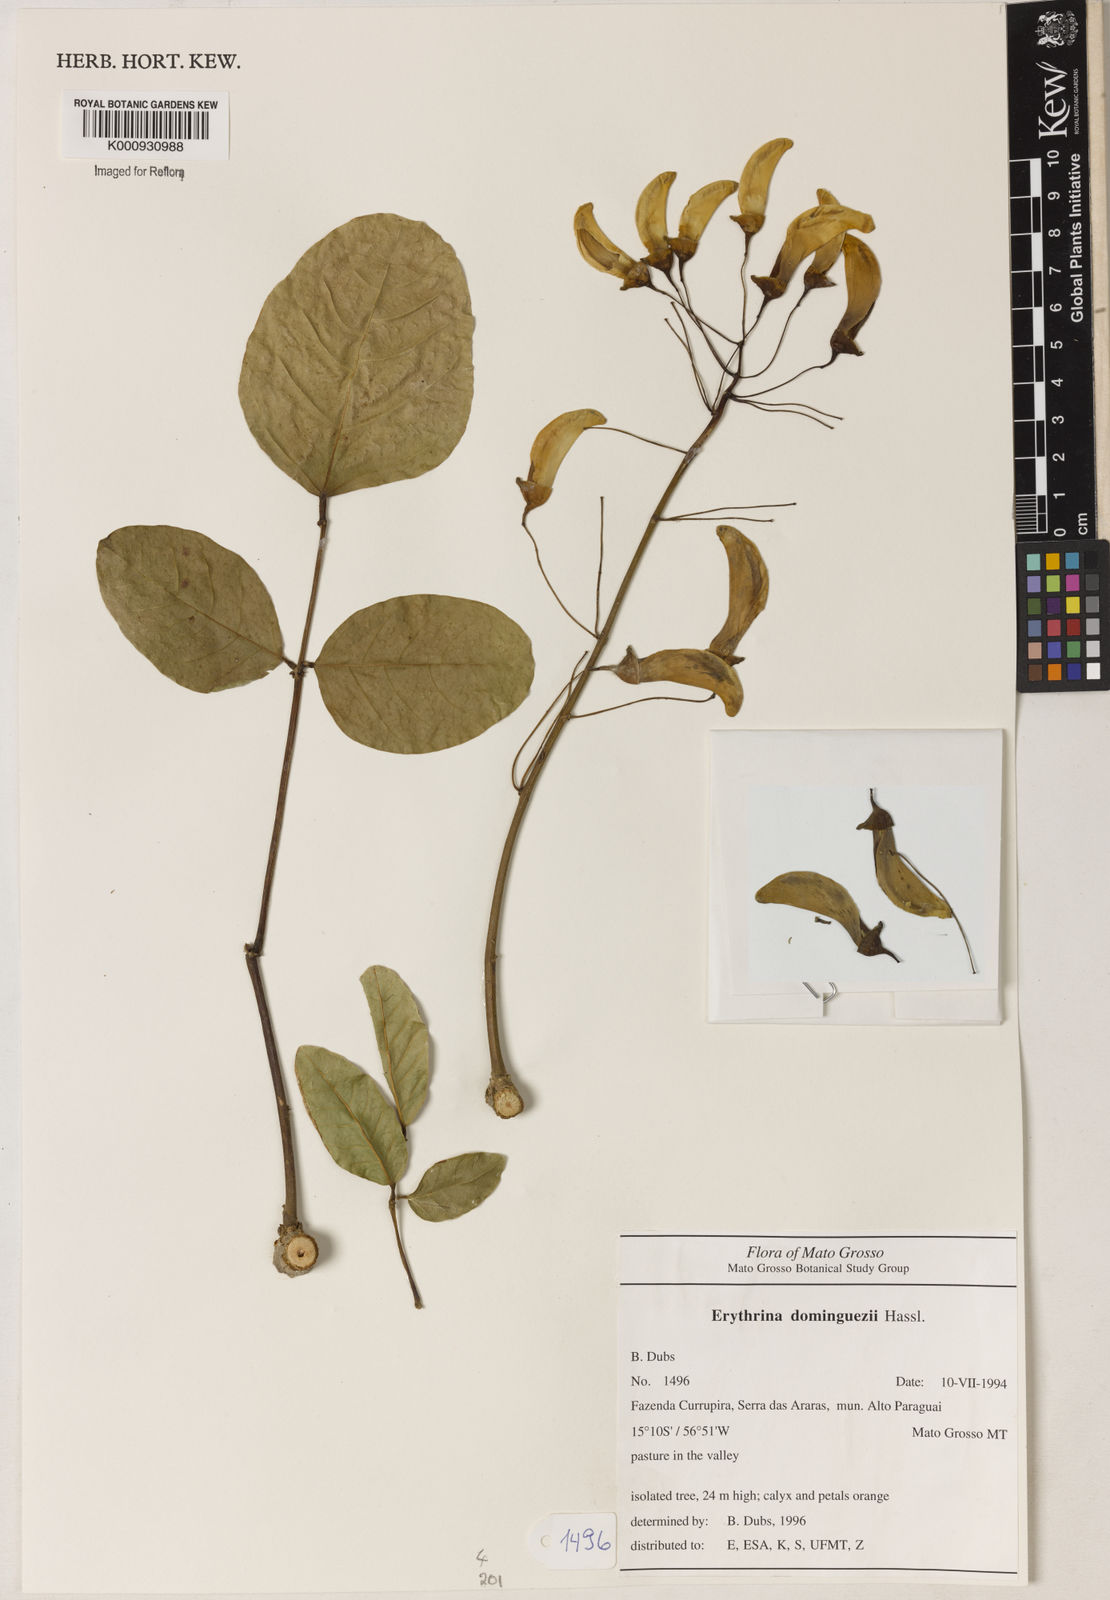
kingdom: Plantae
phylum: Tracheophyta
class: Magnoliopsida
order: Fabales
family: Fabaceae
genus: Erythrina
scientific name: Erythrina mulungu
